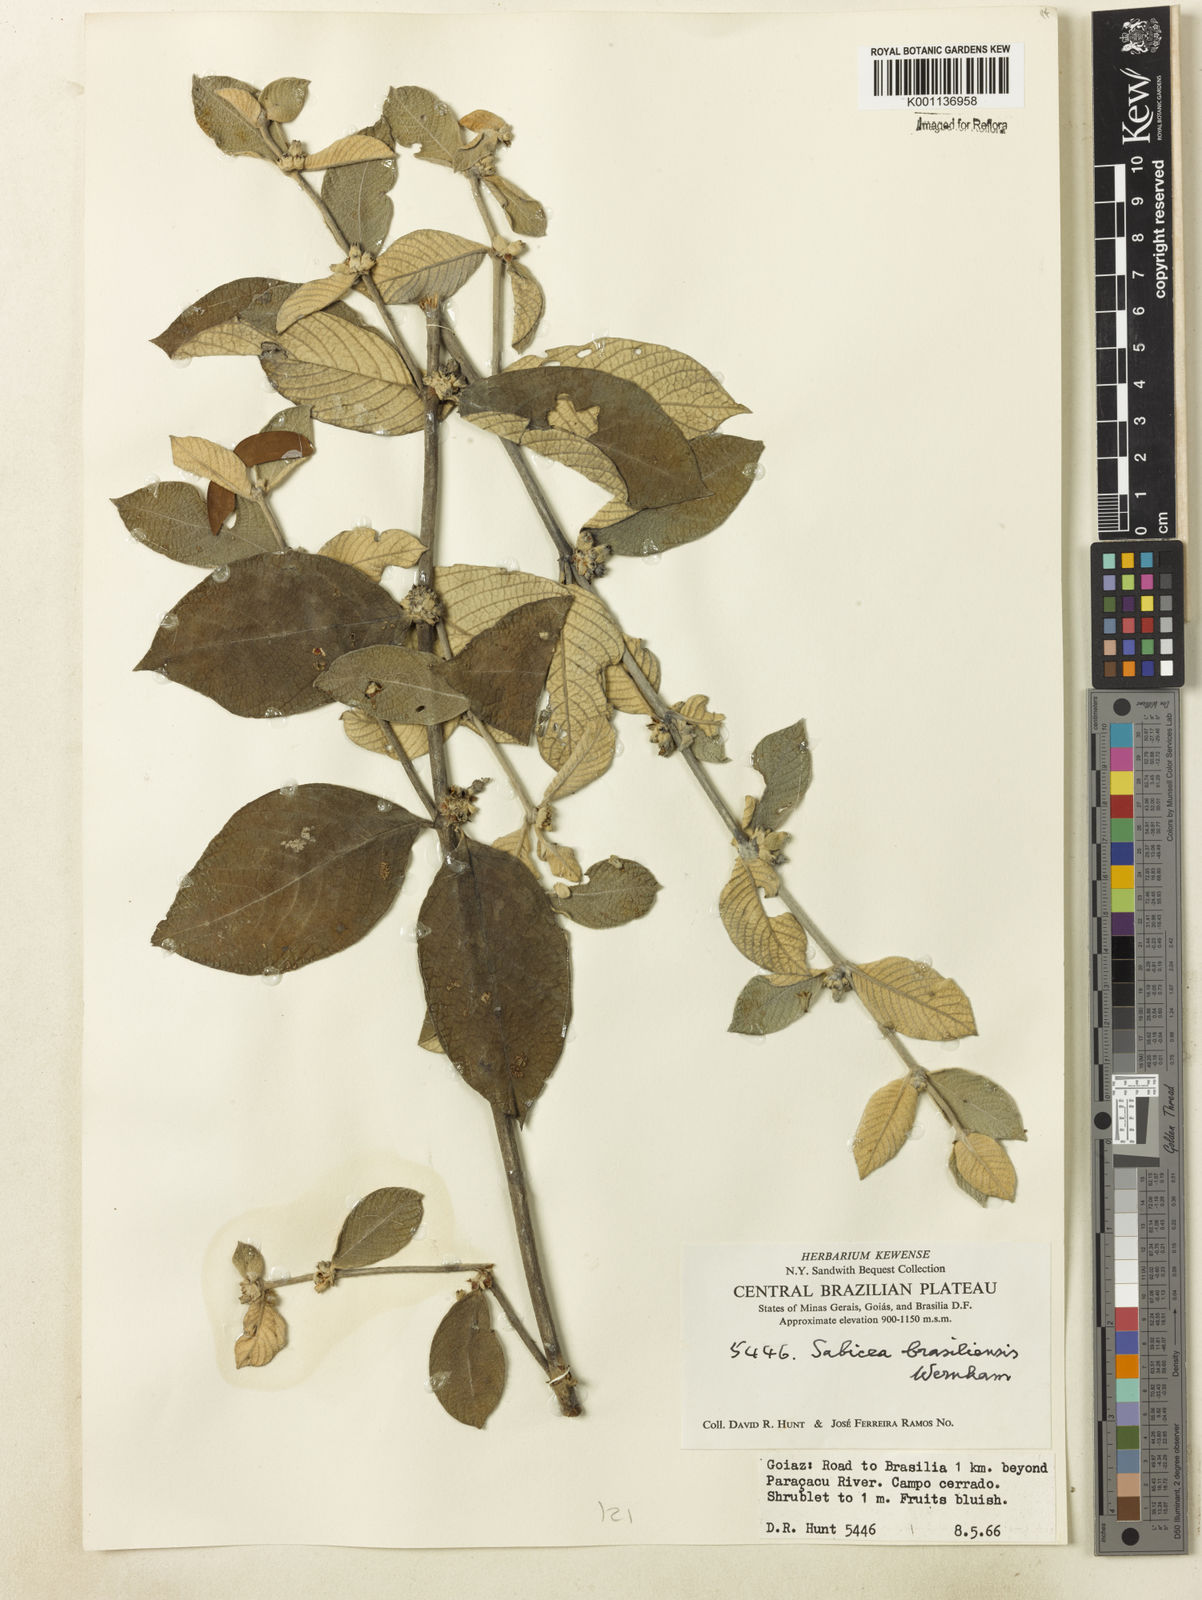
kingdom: Plantae
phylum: Tracheophyta
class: Magnoliopsida
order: Gentianales
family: Rubiaceae
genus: Sabicea
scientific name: Sabicea brasiliensis
